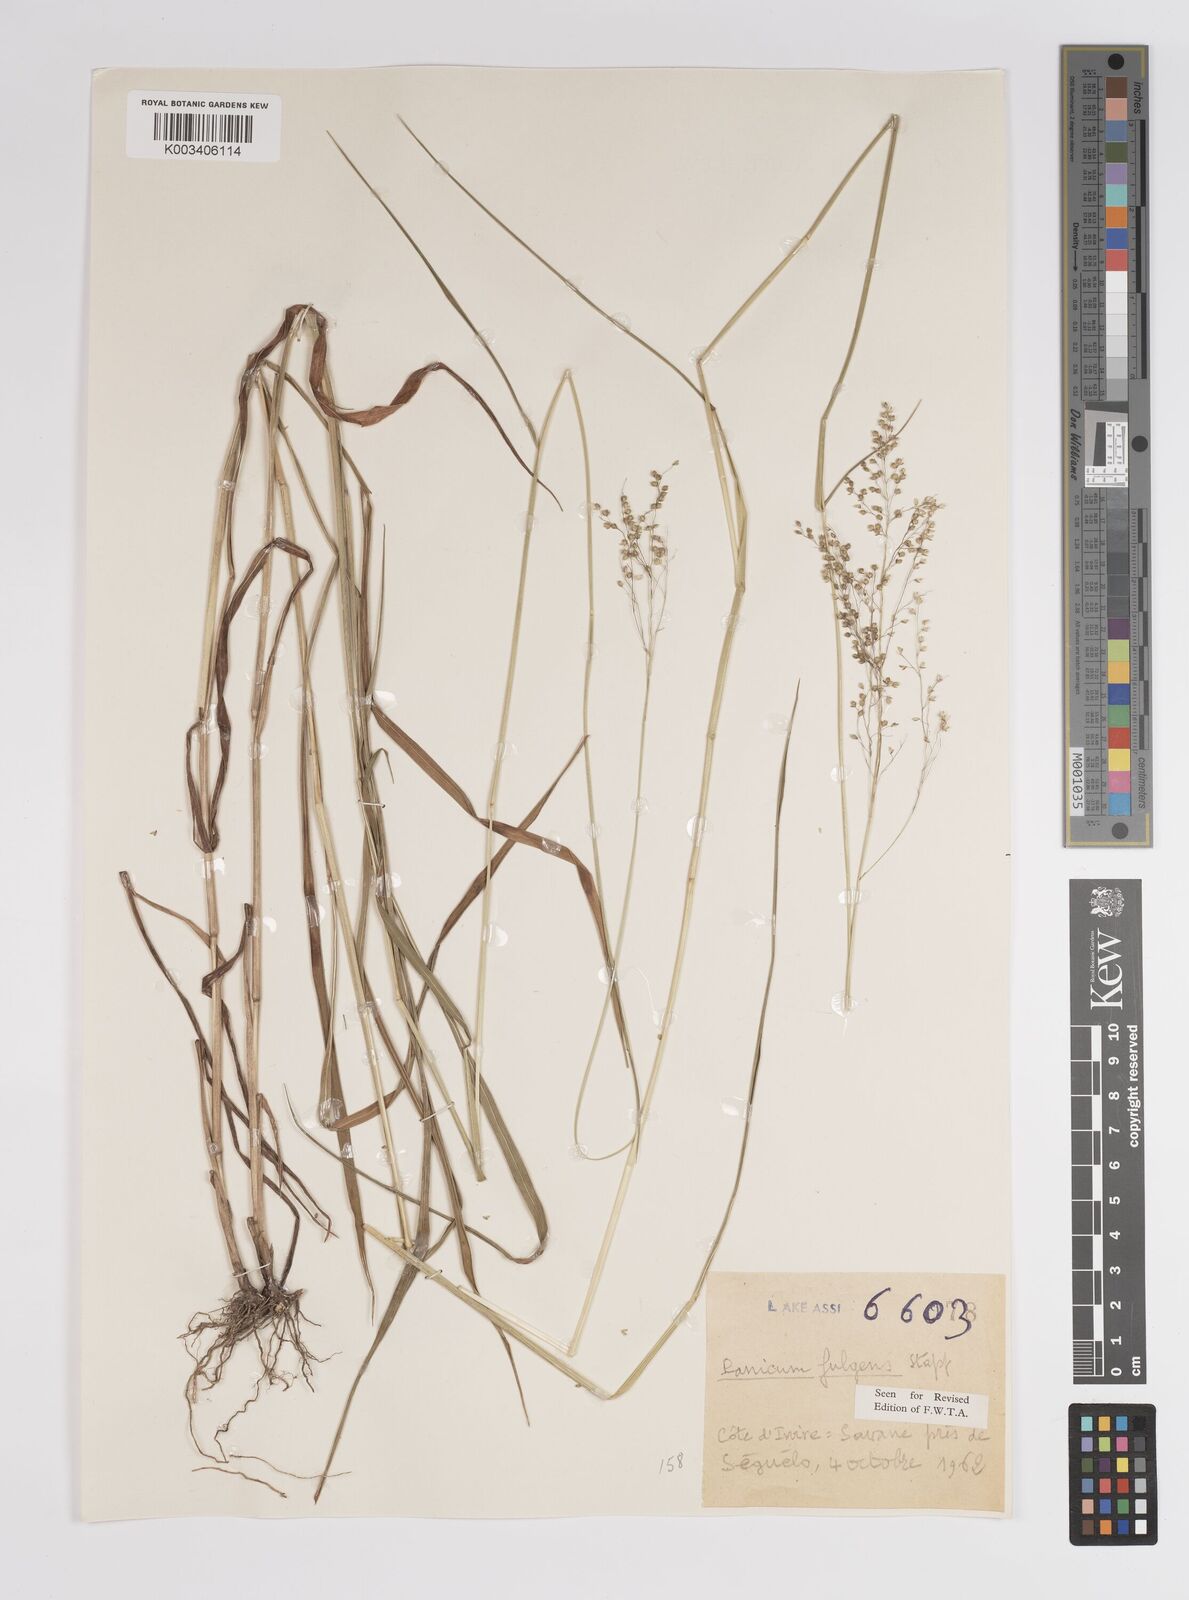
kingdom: Plantae
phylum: Tracheophyta
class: Liliopsida
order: Poales
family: Poaceae
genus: Trichanthecium
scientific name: Trichanthecium nervatum
